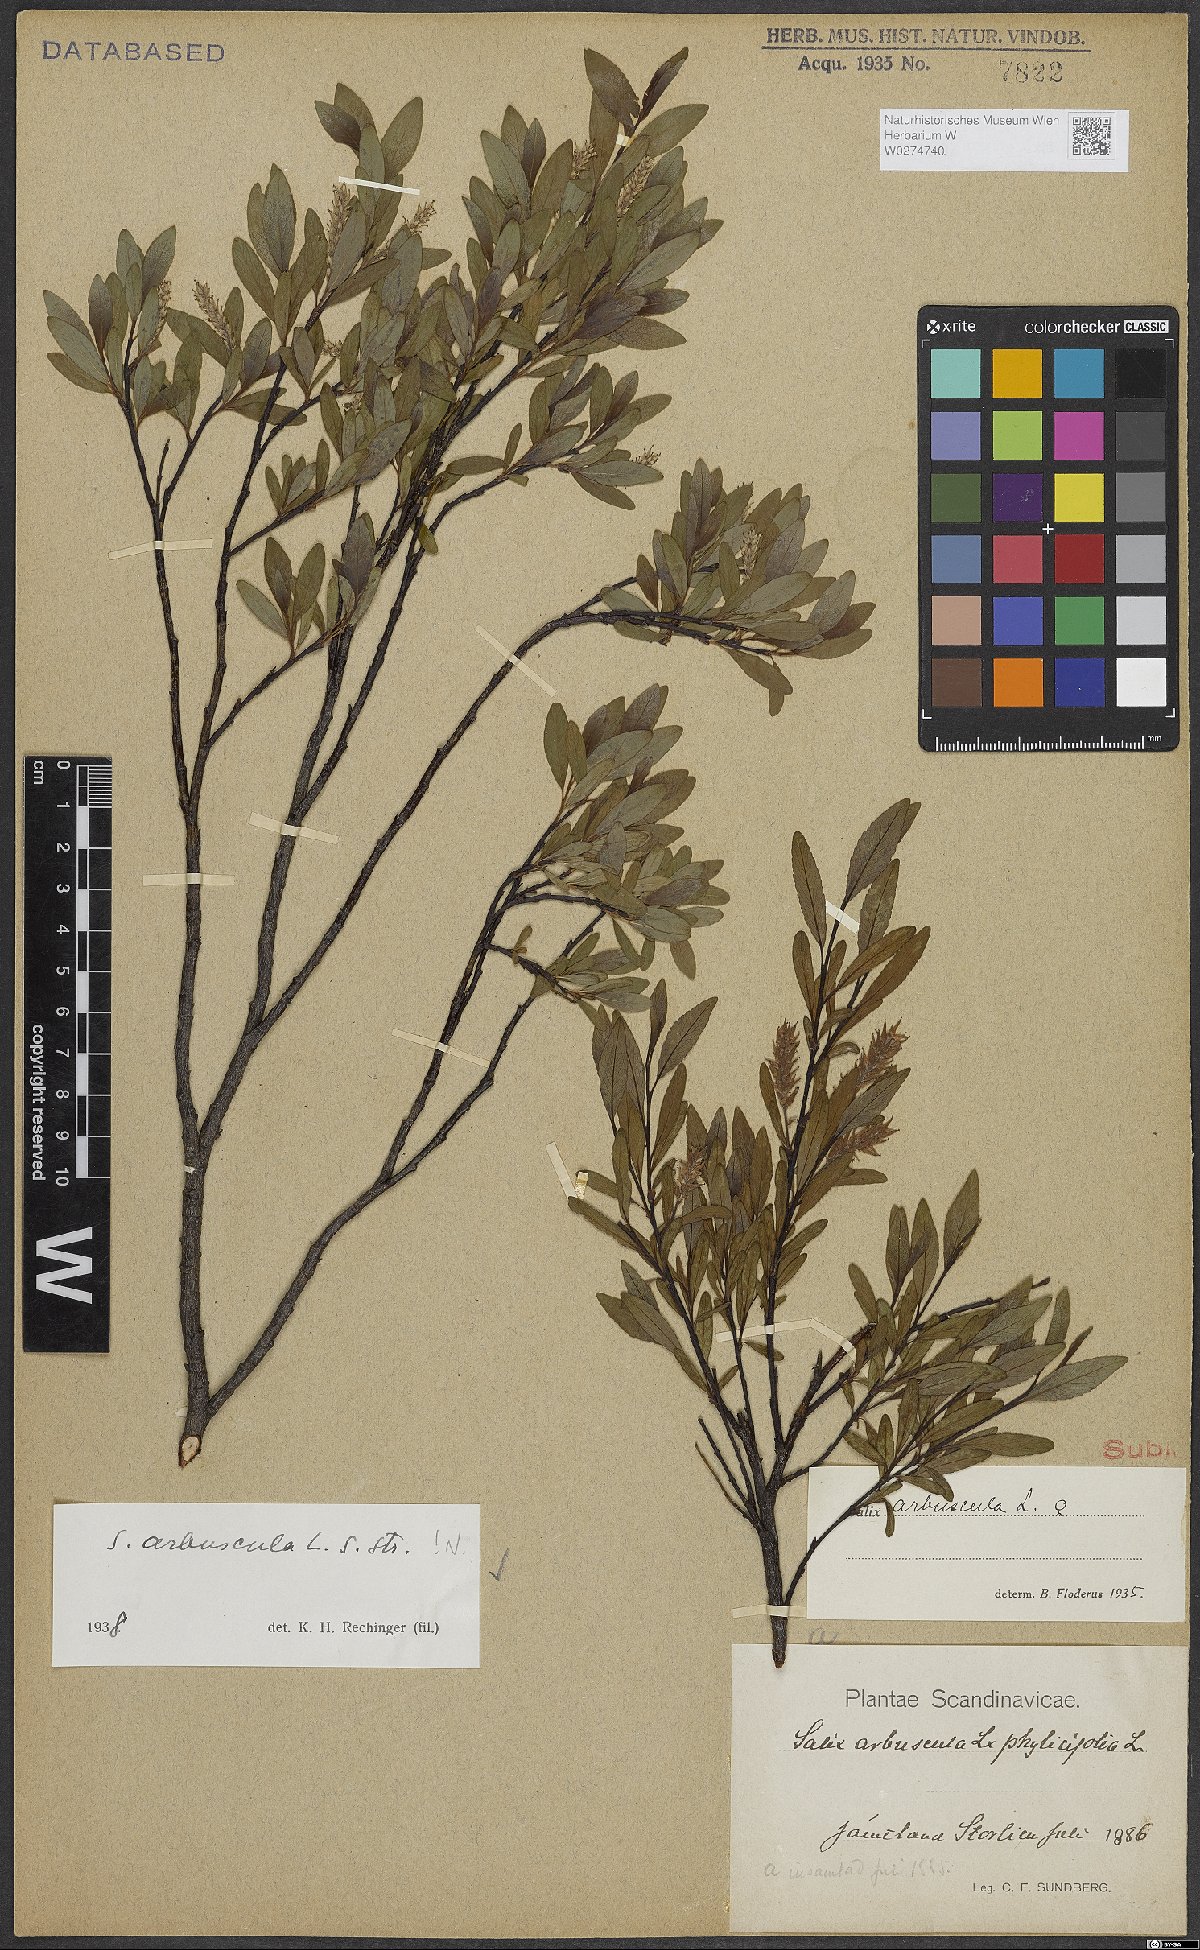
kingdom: Plantae
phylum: Tracheophyta
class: Magnoliopsida
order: Malpighiales
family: Salicaceae
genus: Salix
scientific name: Salix arbuscula
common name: Mountain willow
